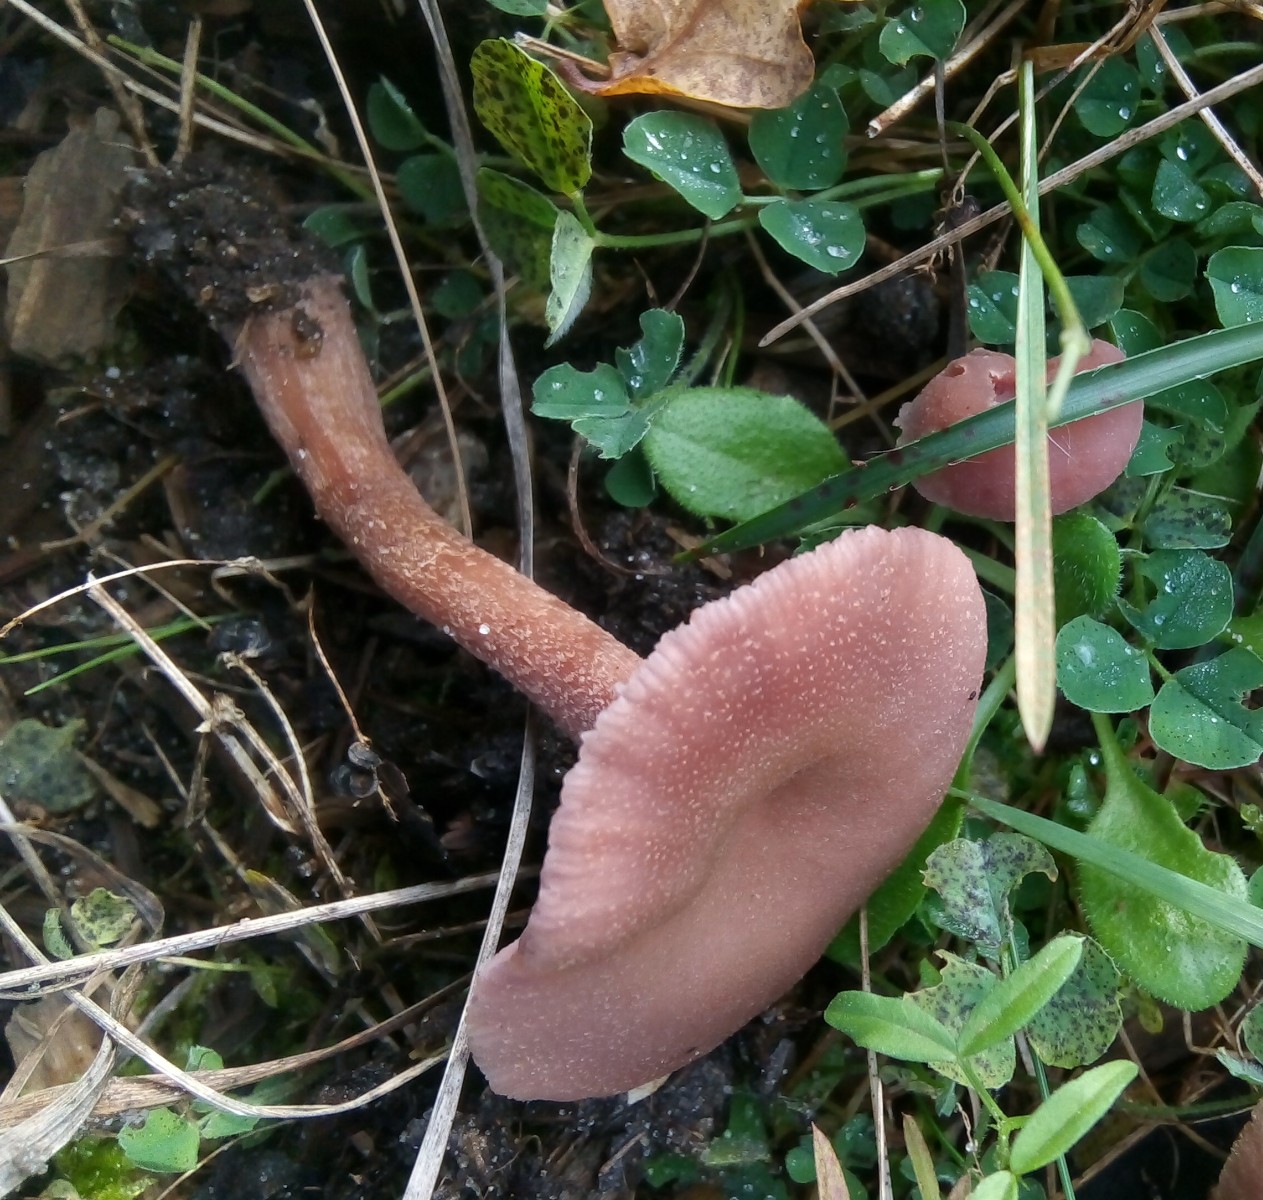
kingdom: Fungi
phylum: Basidiomycota
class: Agaricomycetes
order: Agaricales
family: Hydnangiaceae
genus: Laccaria
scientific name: Laccaria bicolor
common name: tvefarvet ametysthat
